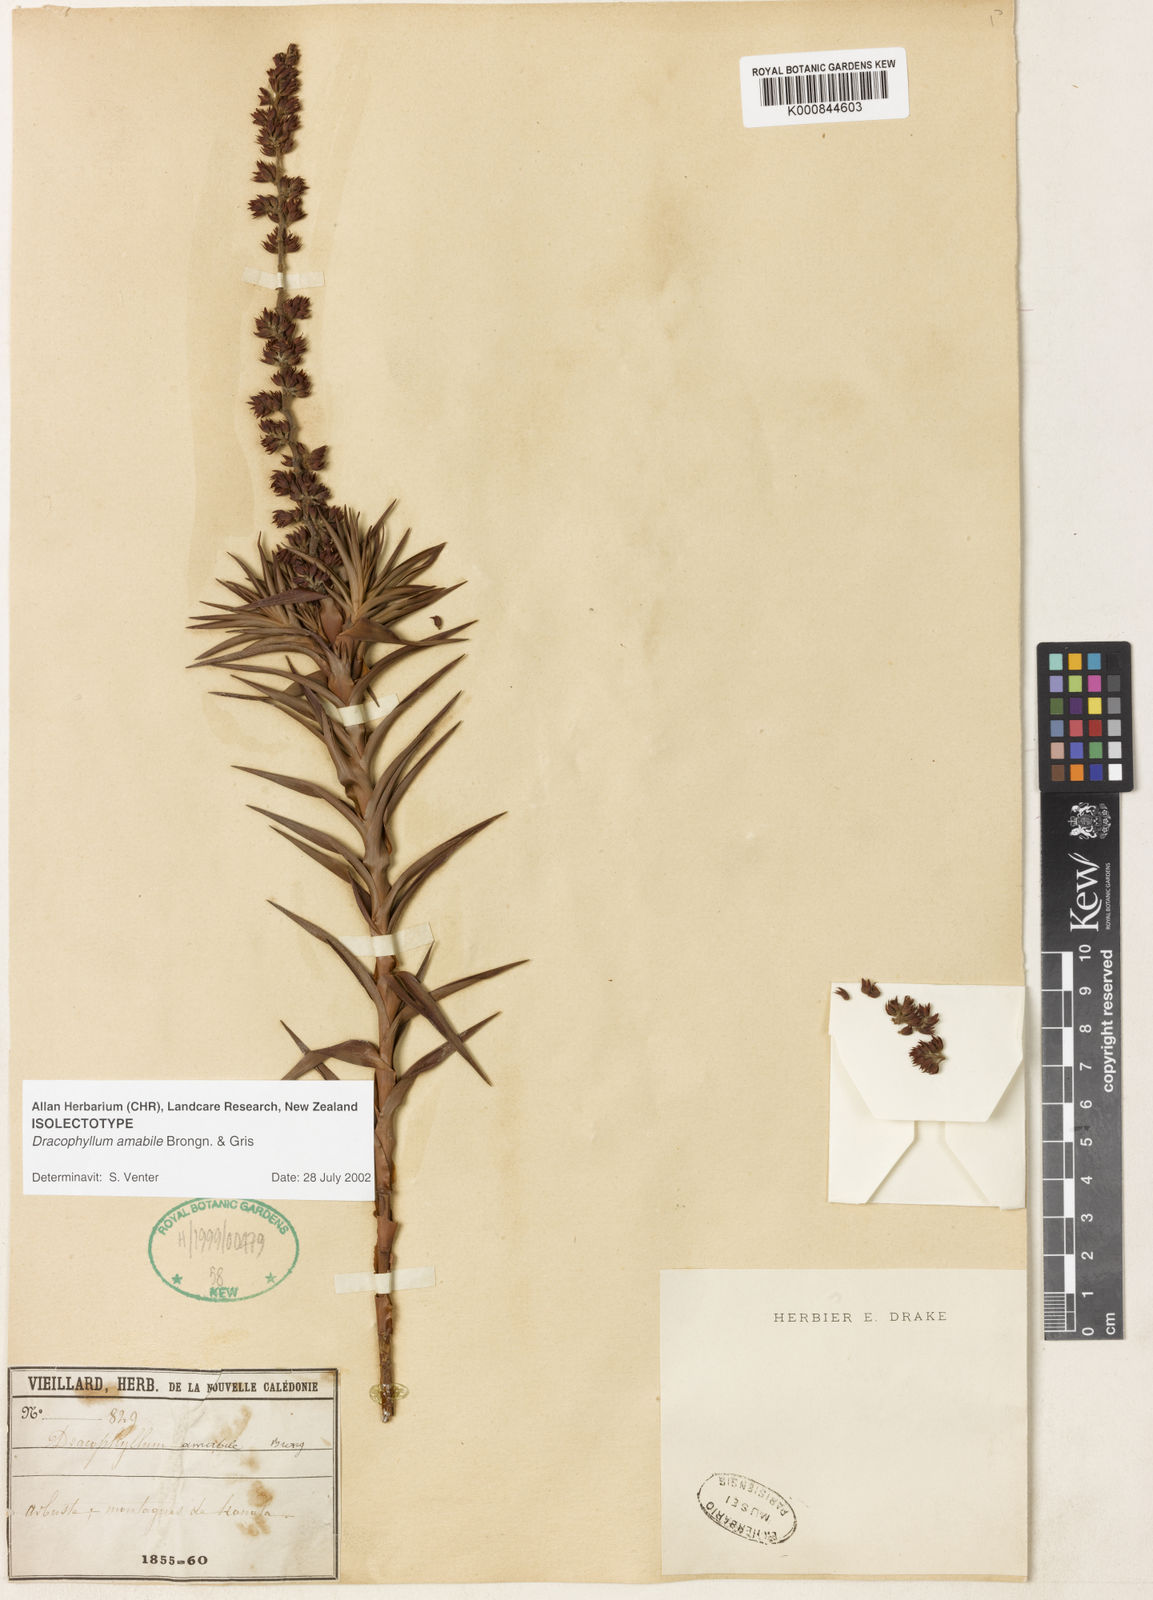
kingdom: Plantae
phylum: Tracheophyta
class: Magnoliopsida
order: Ericales
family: Ericaceae
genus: Dracophyllum
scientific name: Dracophyllum ramosum
